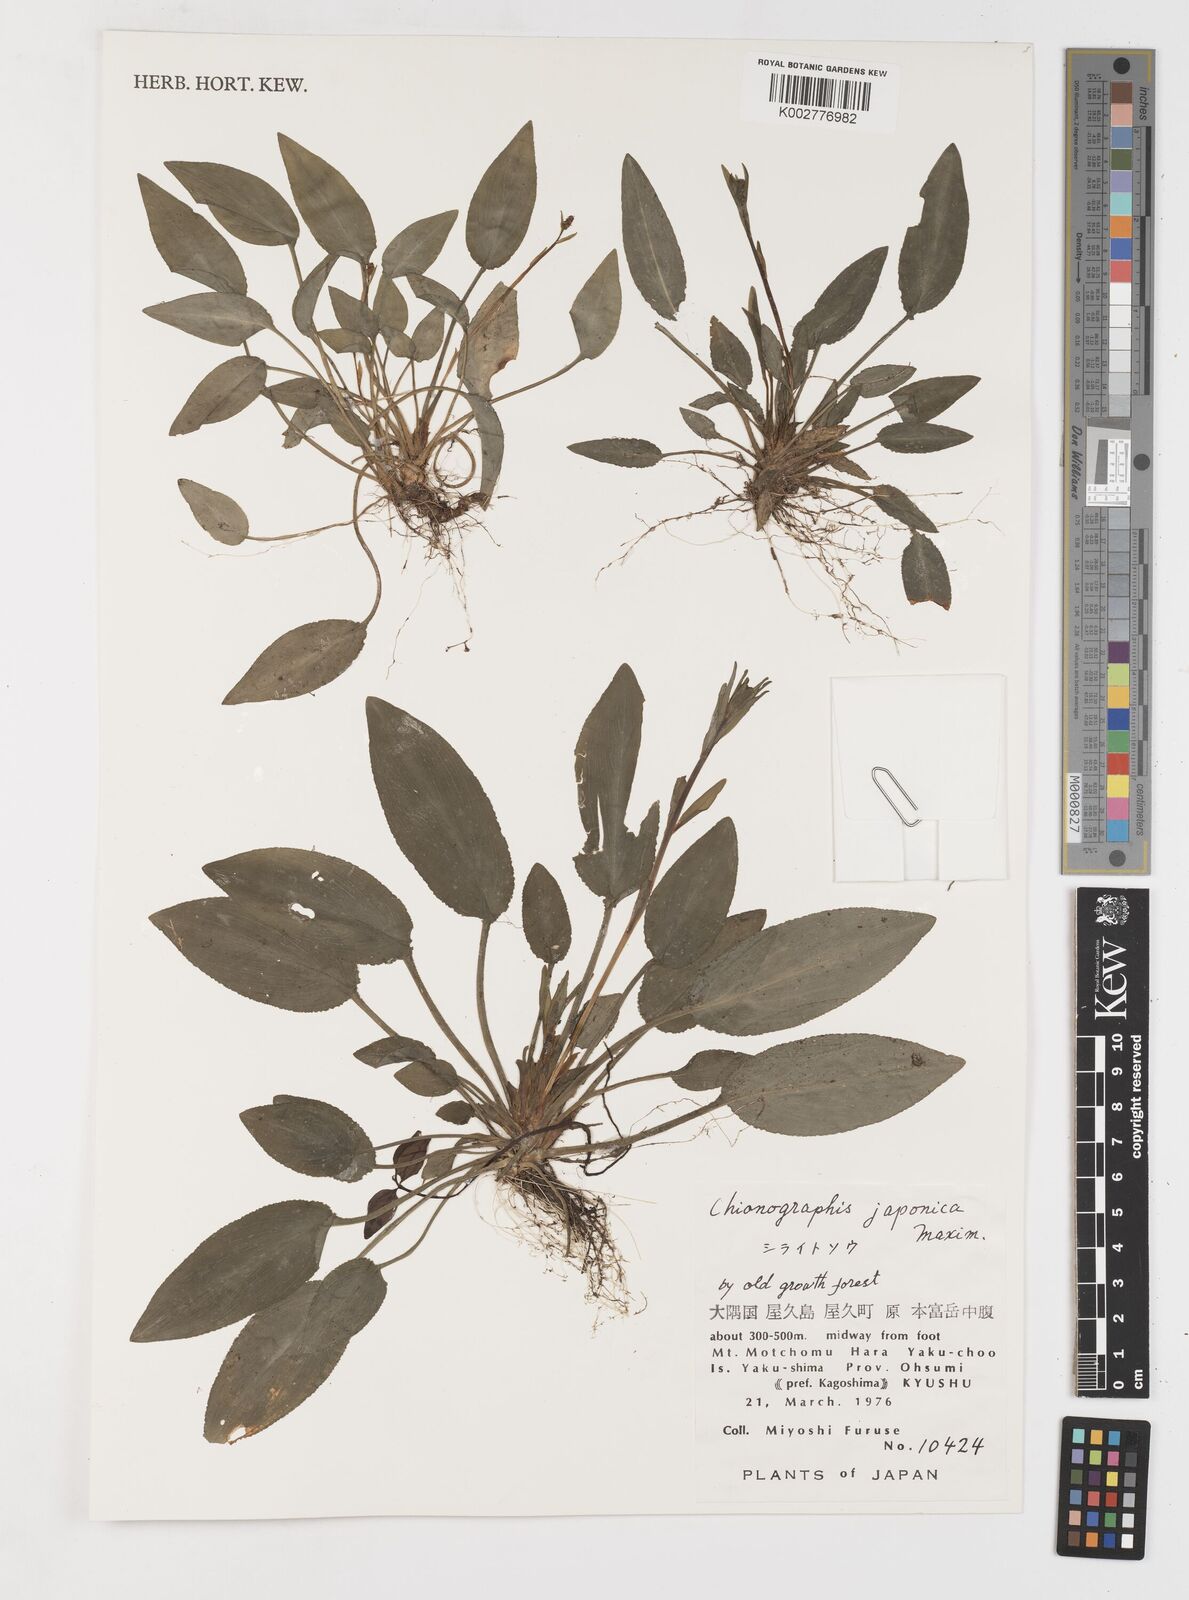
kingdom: Plantae
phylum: Tracheophyta
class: Liliopsida
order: Liliales
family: Melanthiaceae
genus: Chamaelirium
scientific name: Chamaelirium japonicum
